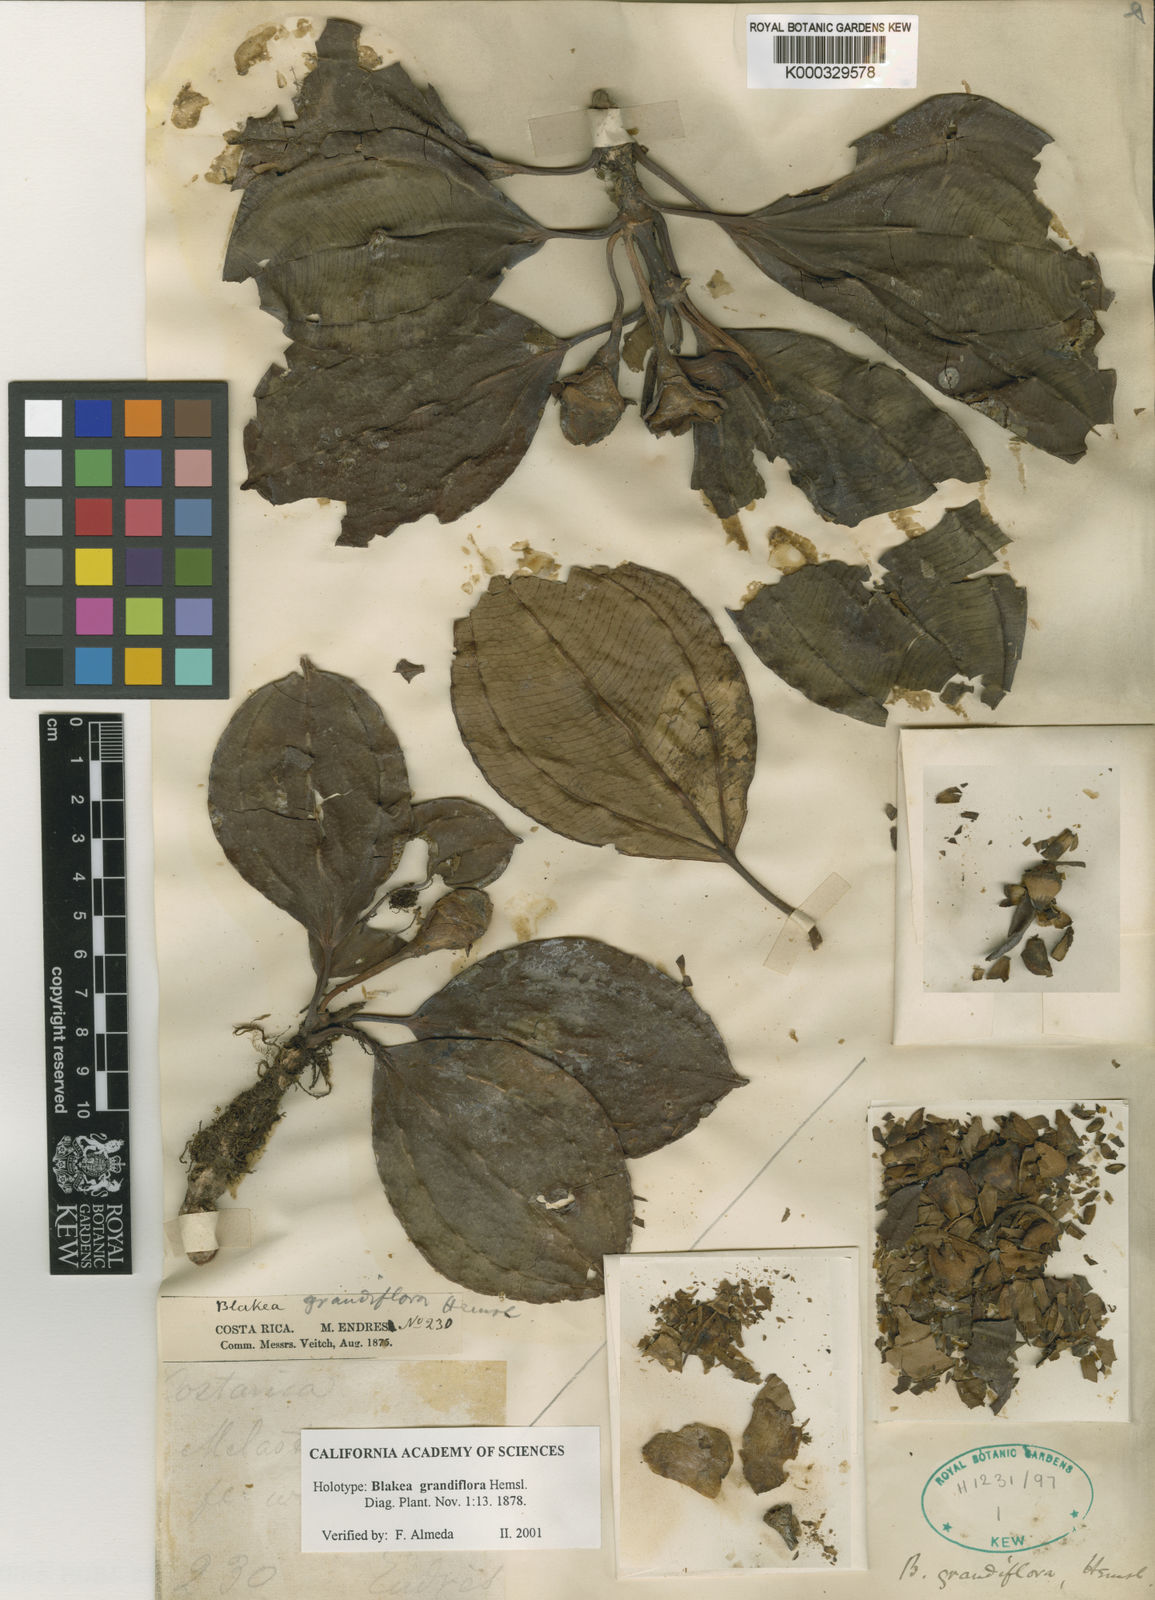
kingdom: Plantae
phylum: Tracheophyta
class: Magnoliopsida
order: Myrtales
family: Melastomataceae
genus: Blakea
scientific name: Blakea grandiflora
